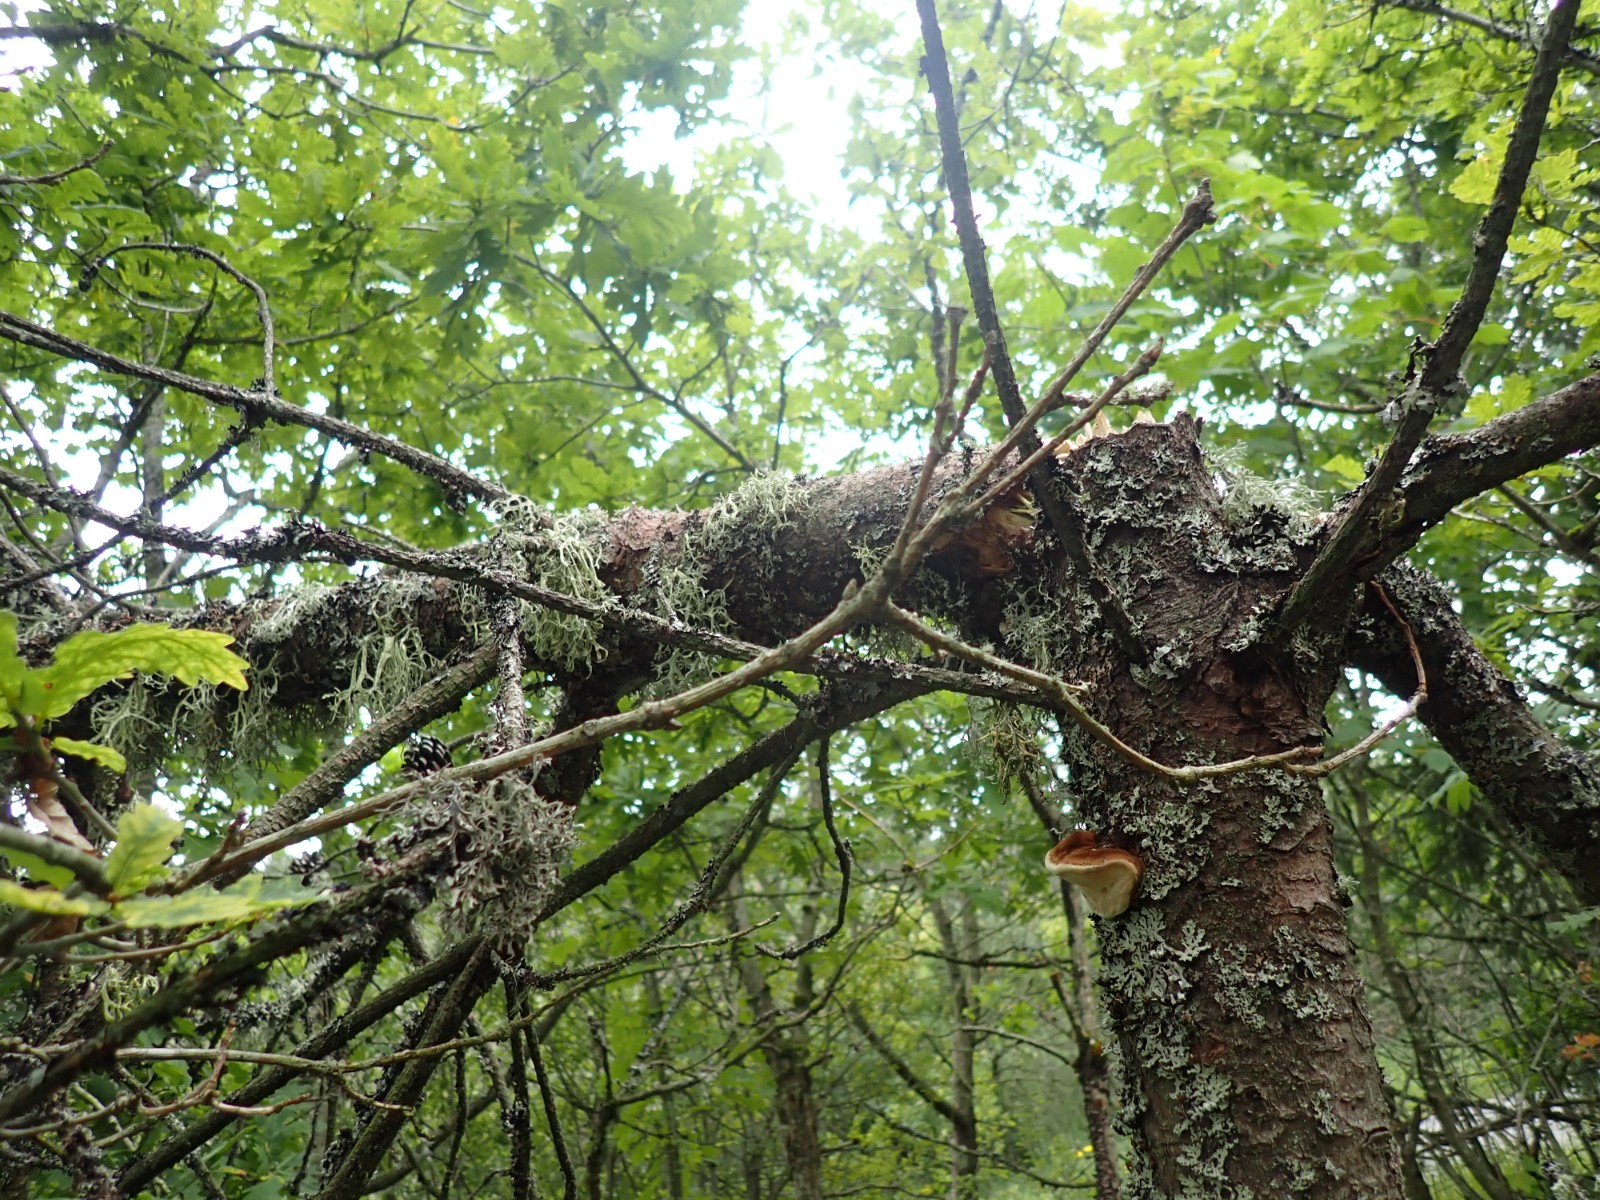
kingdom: Fungi
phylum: Basidiomycota
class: Agaricomycetes
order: Polyporales
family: Fomitopsidaceae
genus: Fomitopsis
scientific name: Fomitopsis pinicola
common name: randbæltet hovporesvamp
